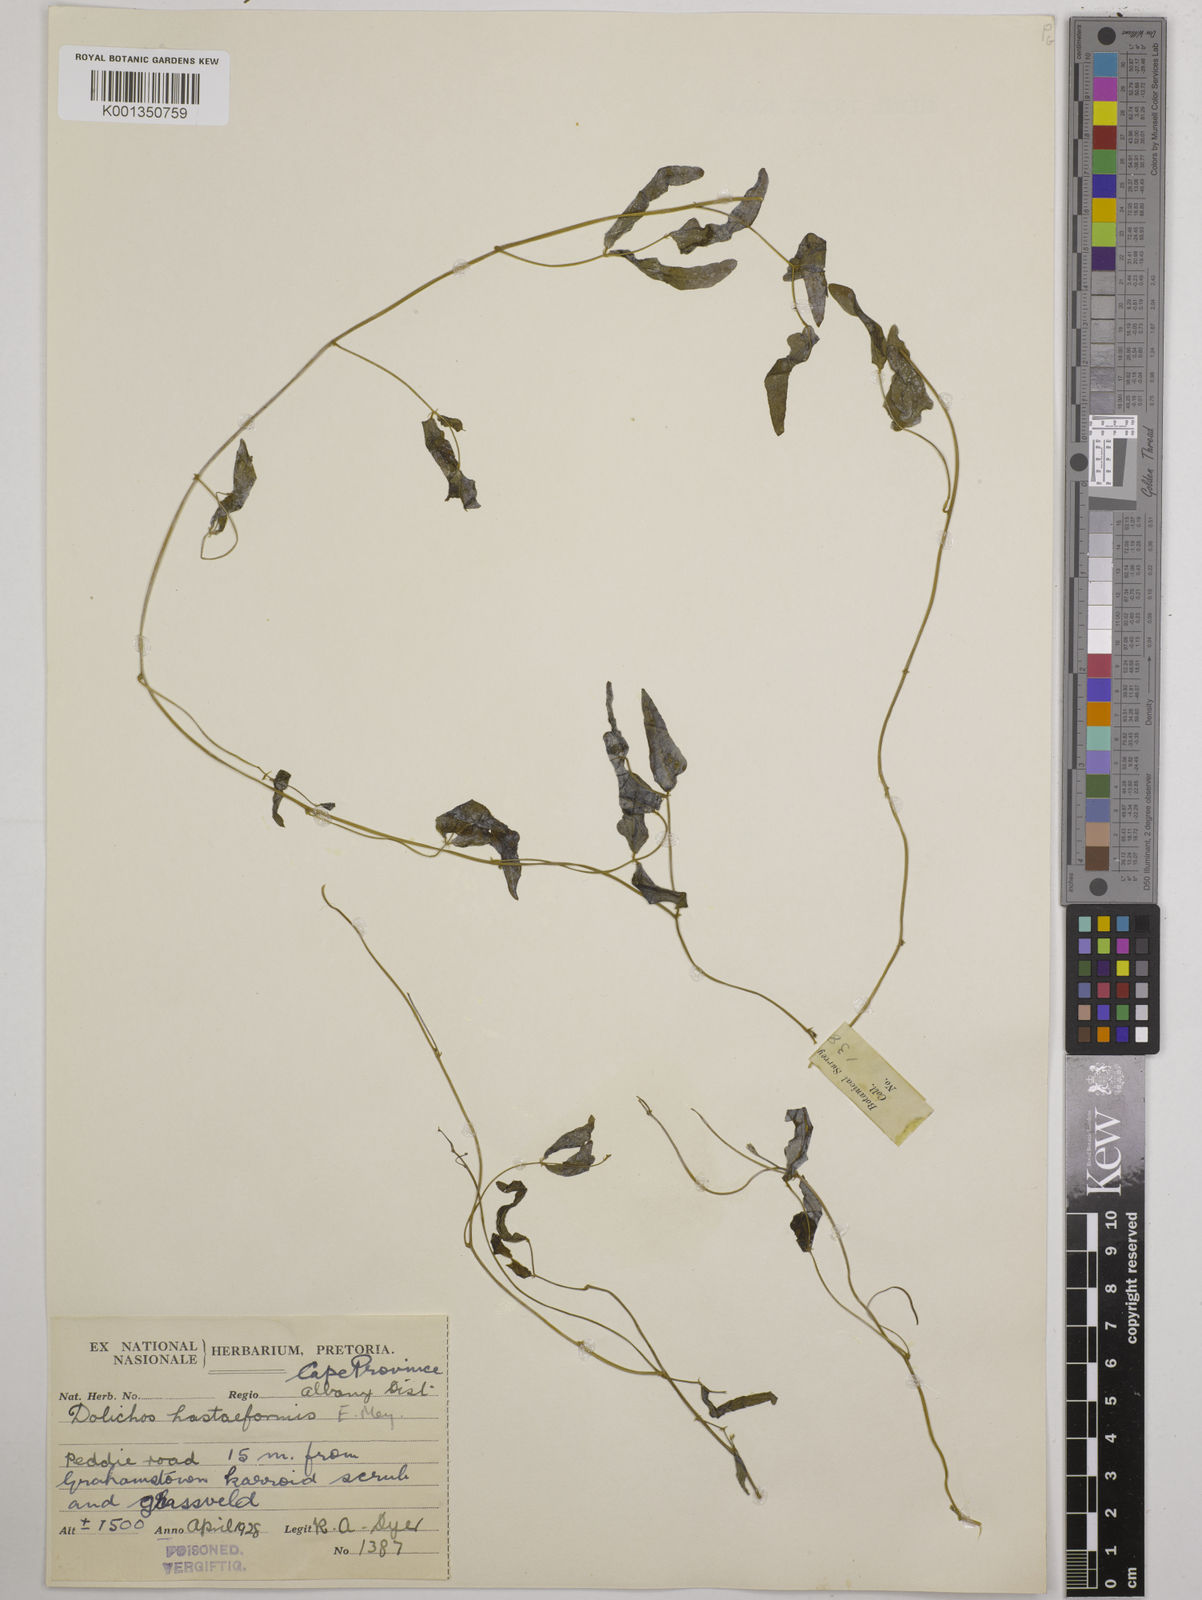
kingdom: Plantae
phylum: Tracheophyta
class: Magnoliopsida
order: Fabales
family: Fabaceae
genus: Dolichos
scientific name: Dolichos
